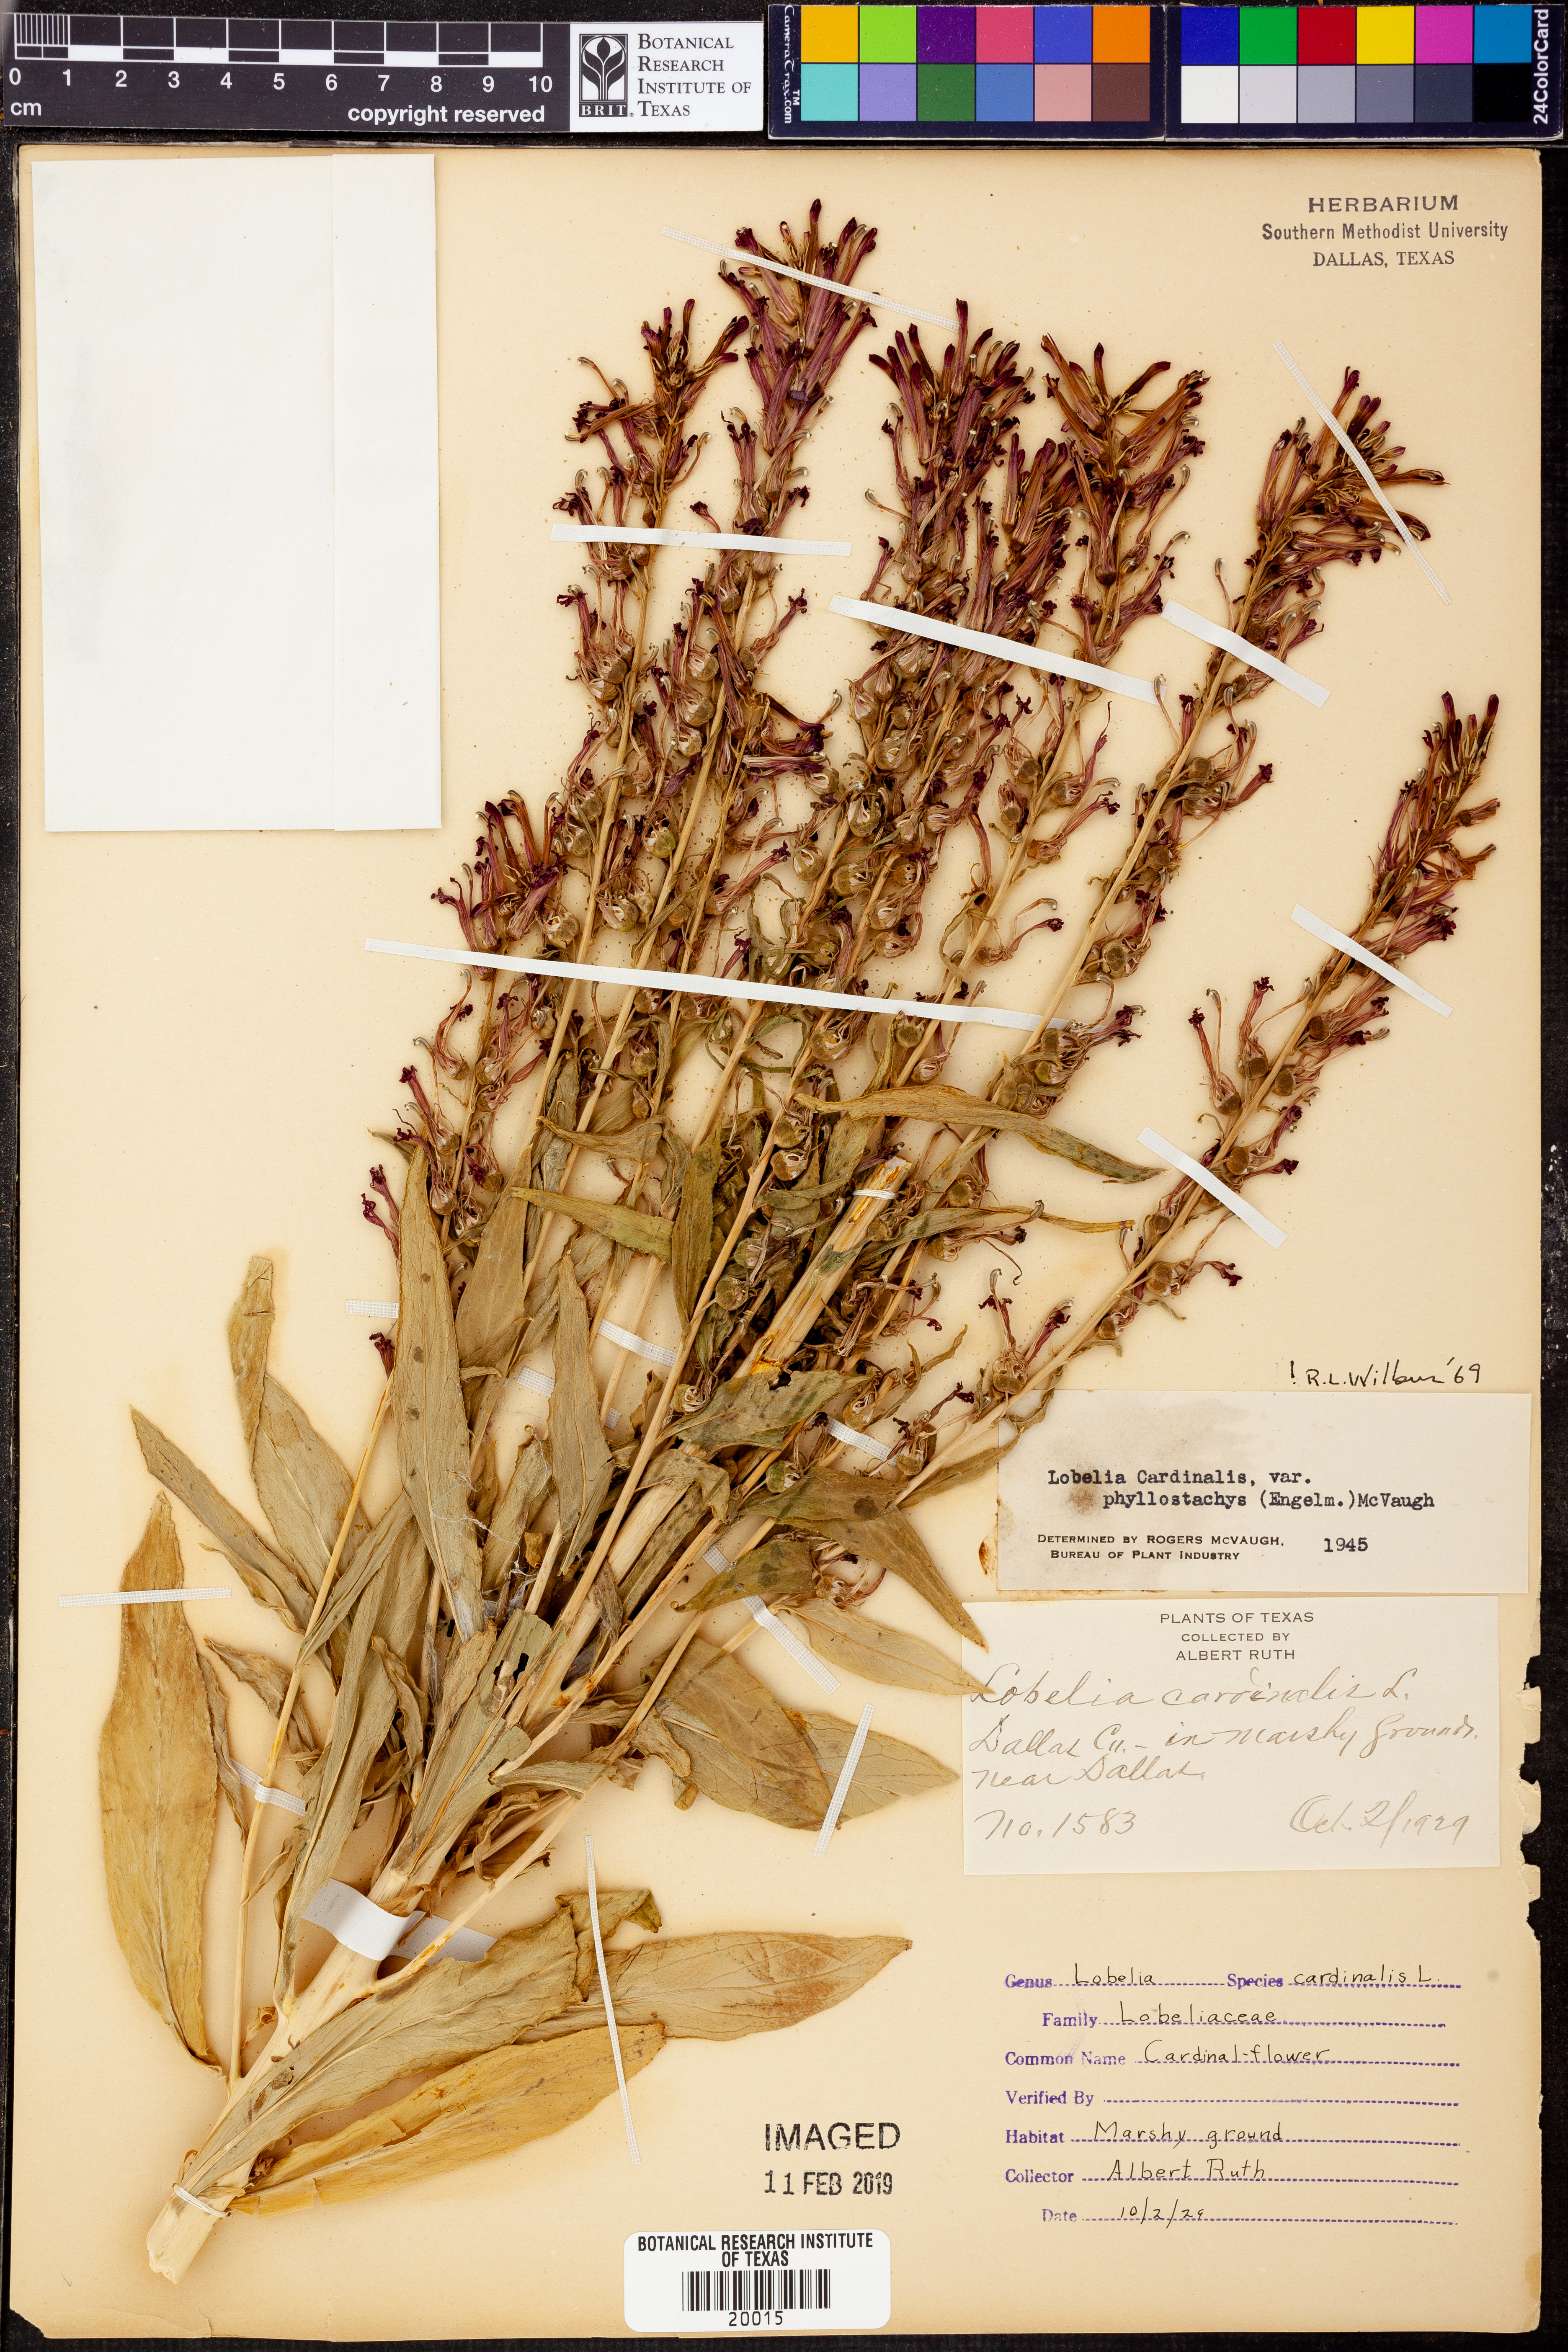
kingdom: Plantae
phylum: Tracheophyta
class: Magnoliopsida
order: Asterales
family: Campanulaceae
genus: Lobelia
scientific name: Lobelia cardinalis
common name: Cardinal flower
